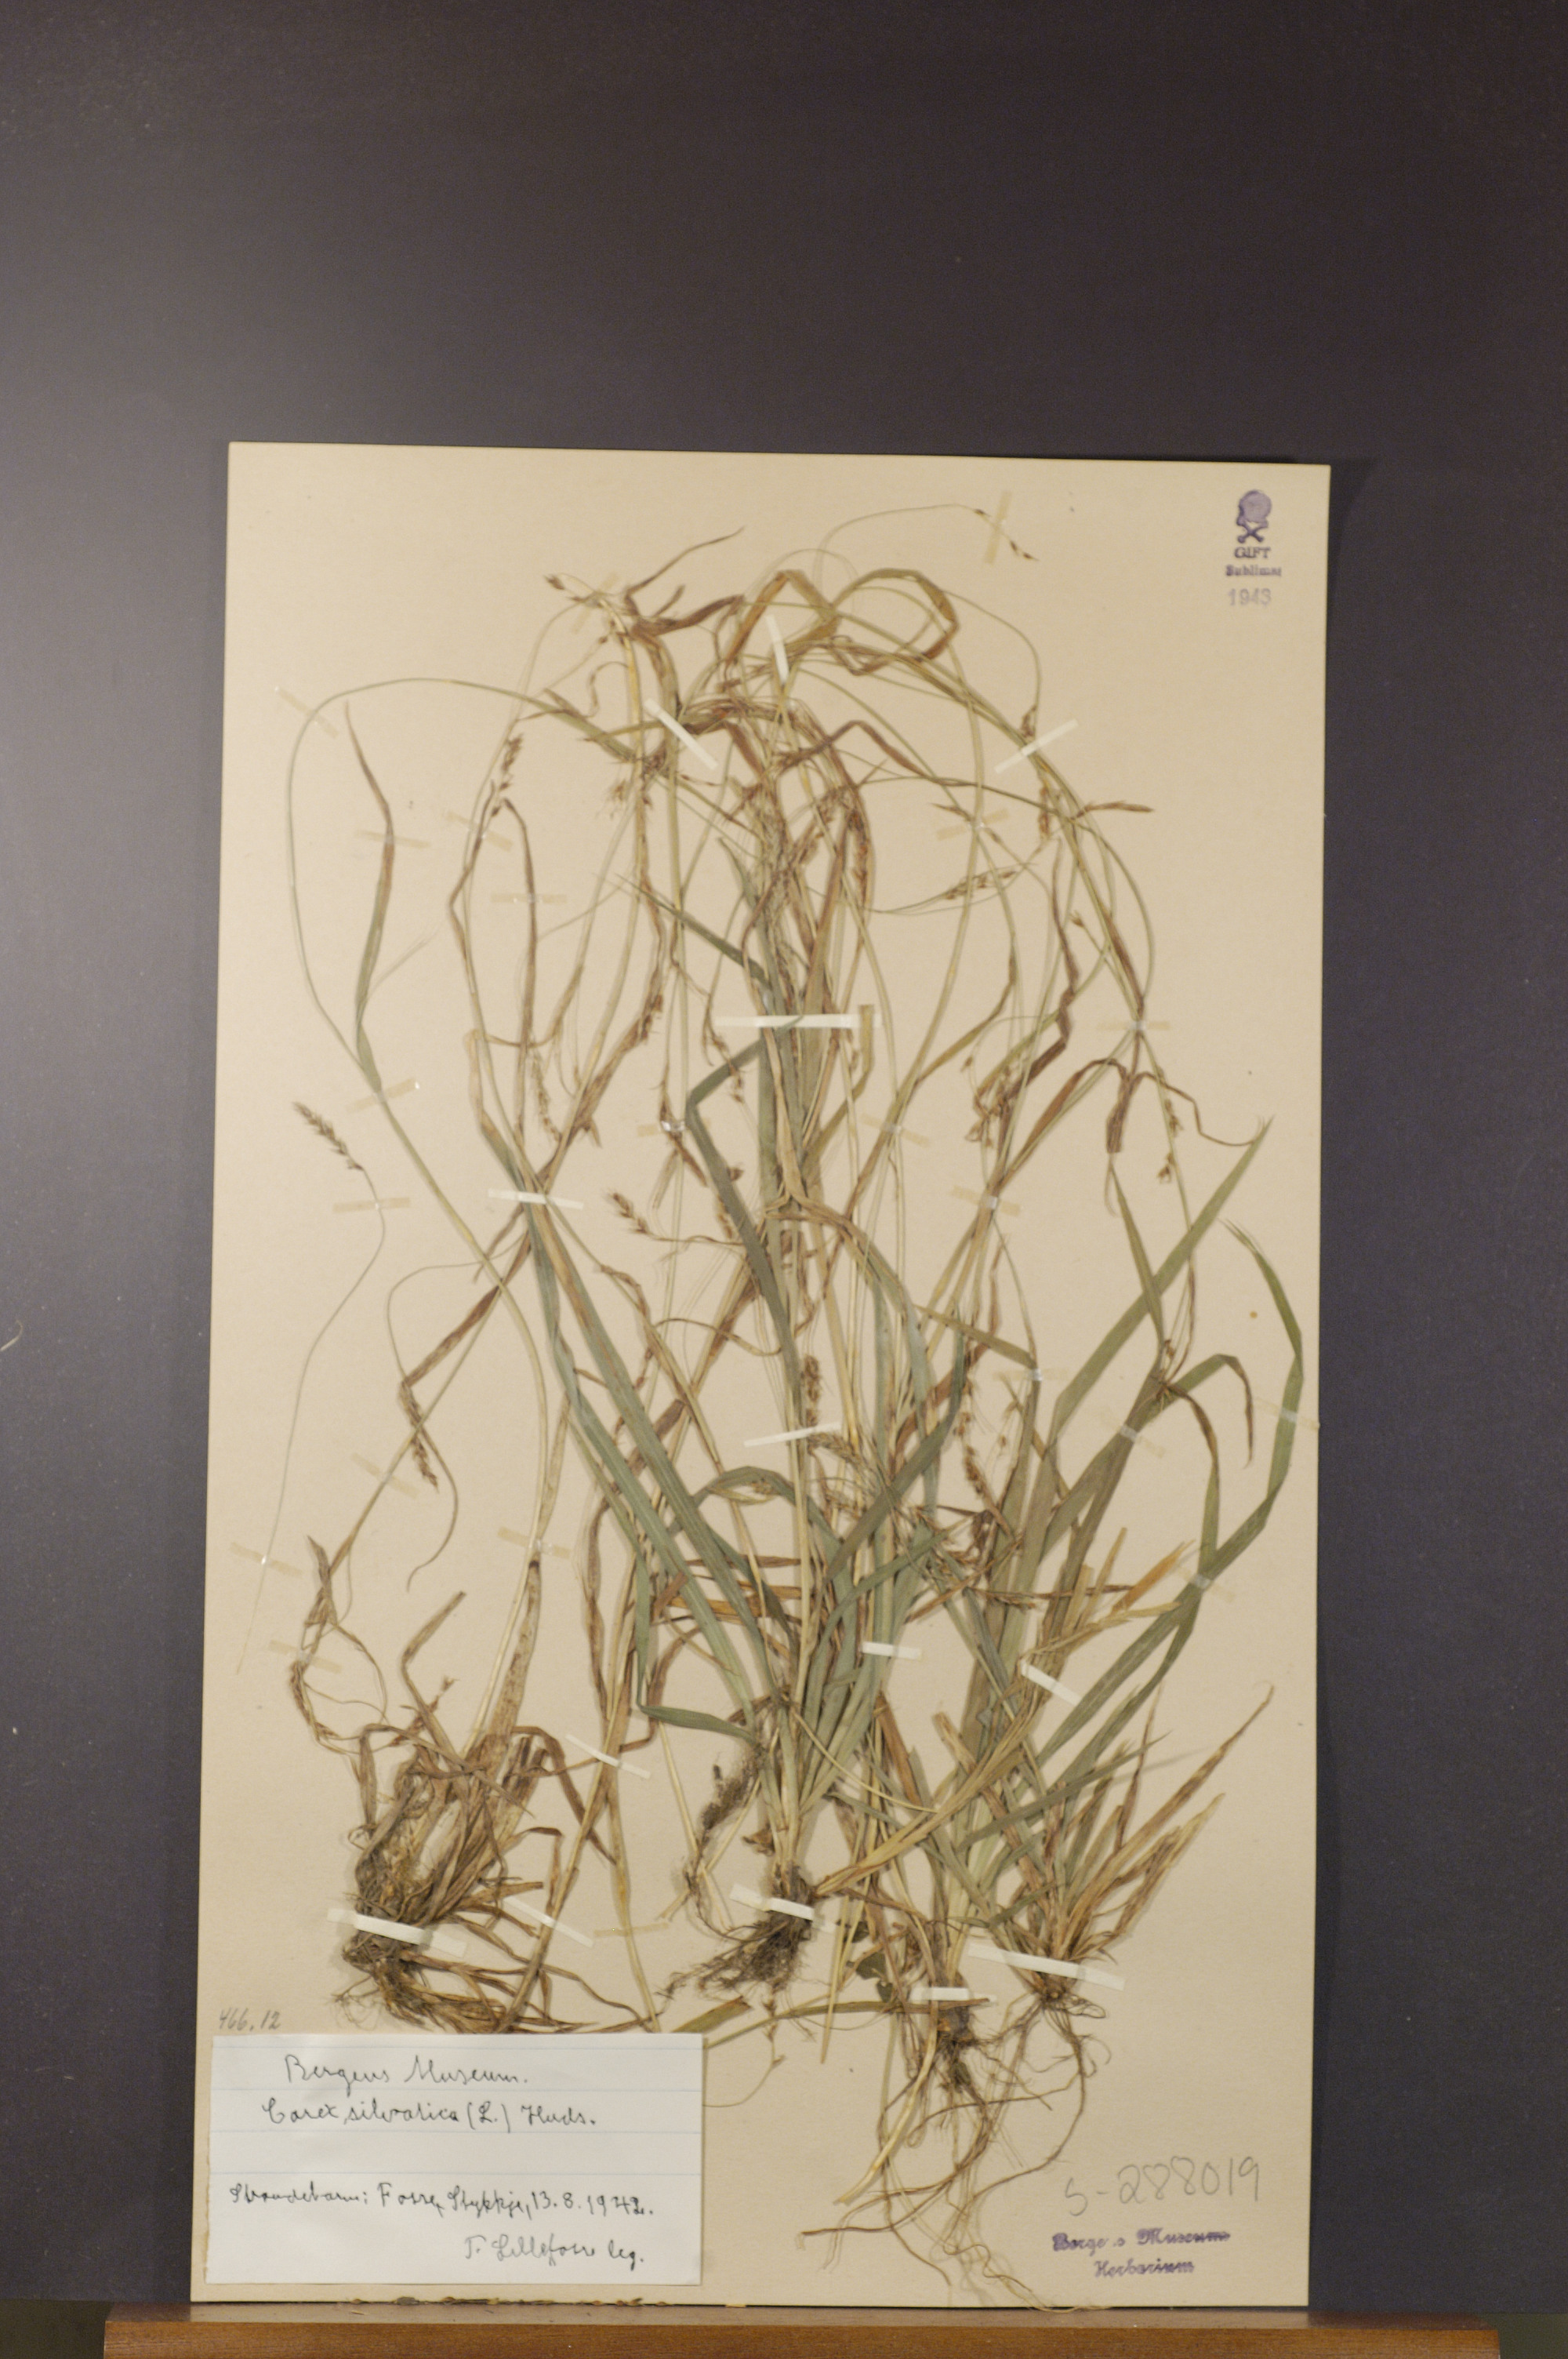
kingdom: Plantae
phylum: Tracheophyta
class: Liliopsida
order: Poales
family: Cyperaceae
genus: Carex
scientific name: Carex sylvatica
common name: Wood-sedge
